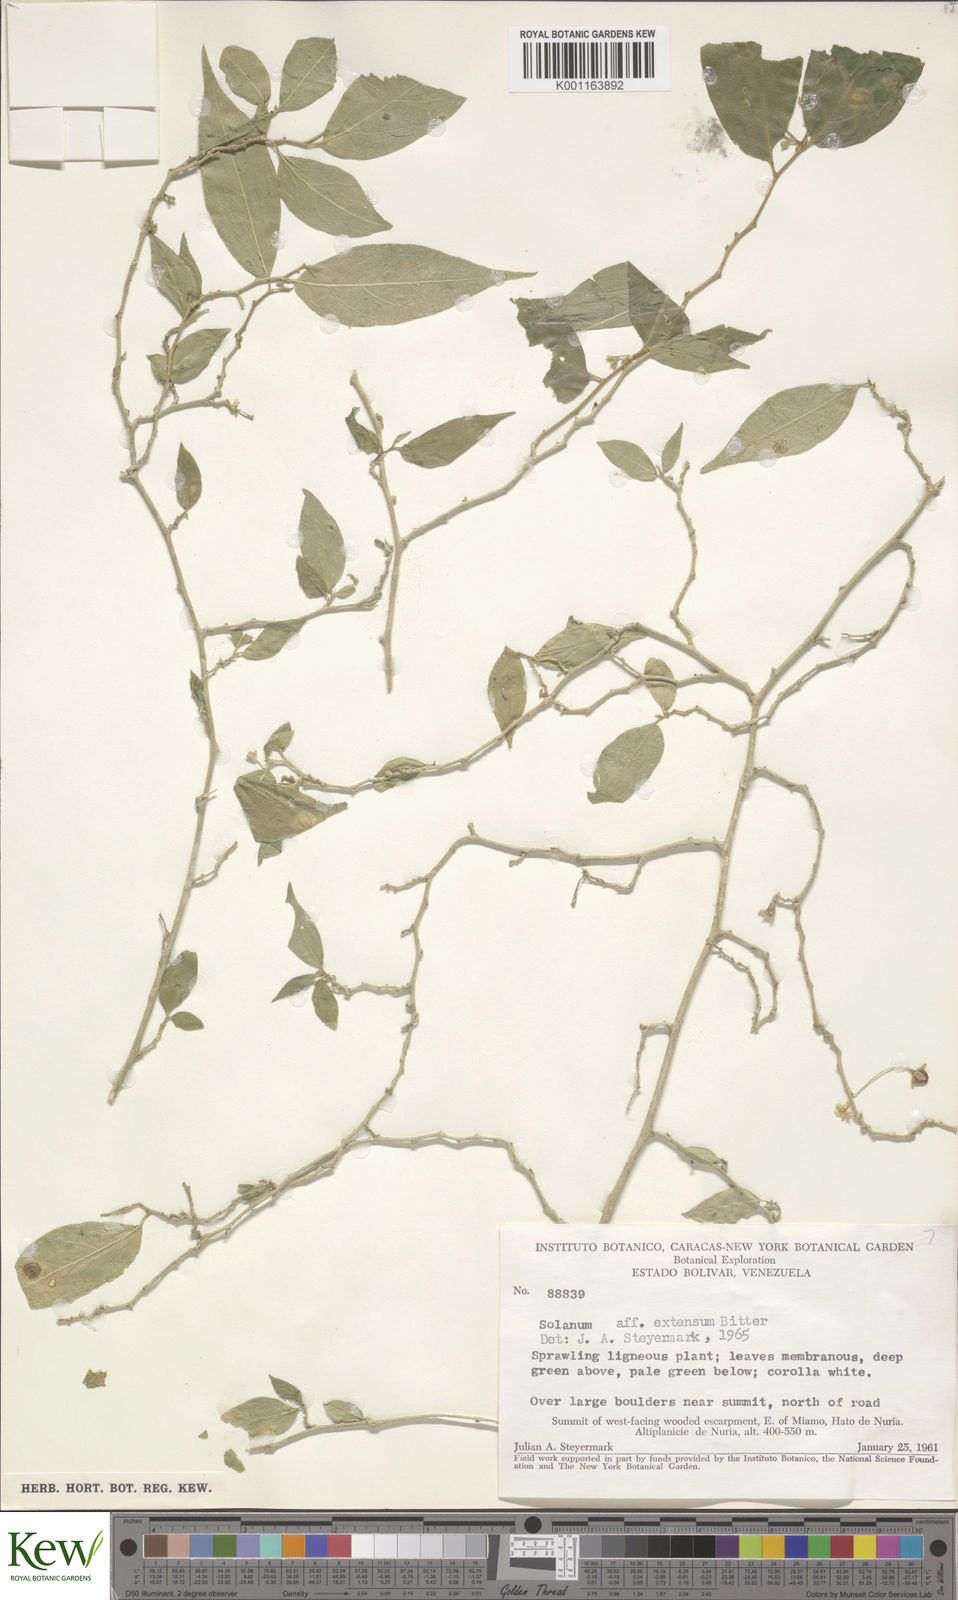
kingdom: Plantae
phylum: Tracheophyta
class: Magnoliopsida
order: Solanales
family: Solanaceae
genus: Solanum
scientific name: Solanum cordovense
